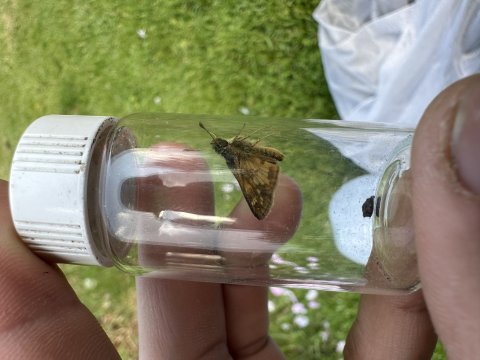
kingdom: Animalia
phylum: Arthropoda
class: Insecta
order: Lepidoptera
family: Hesperiidae
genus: Polites
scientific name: Polites coras
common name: Peck's Skipper
